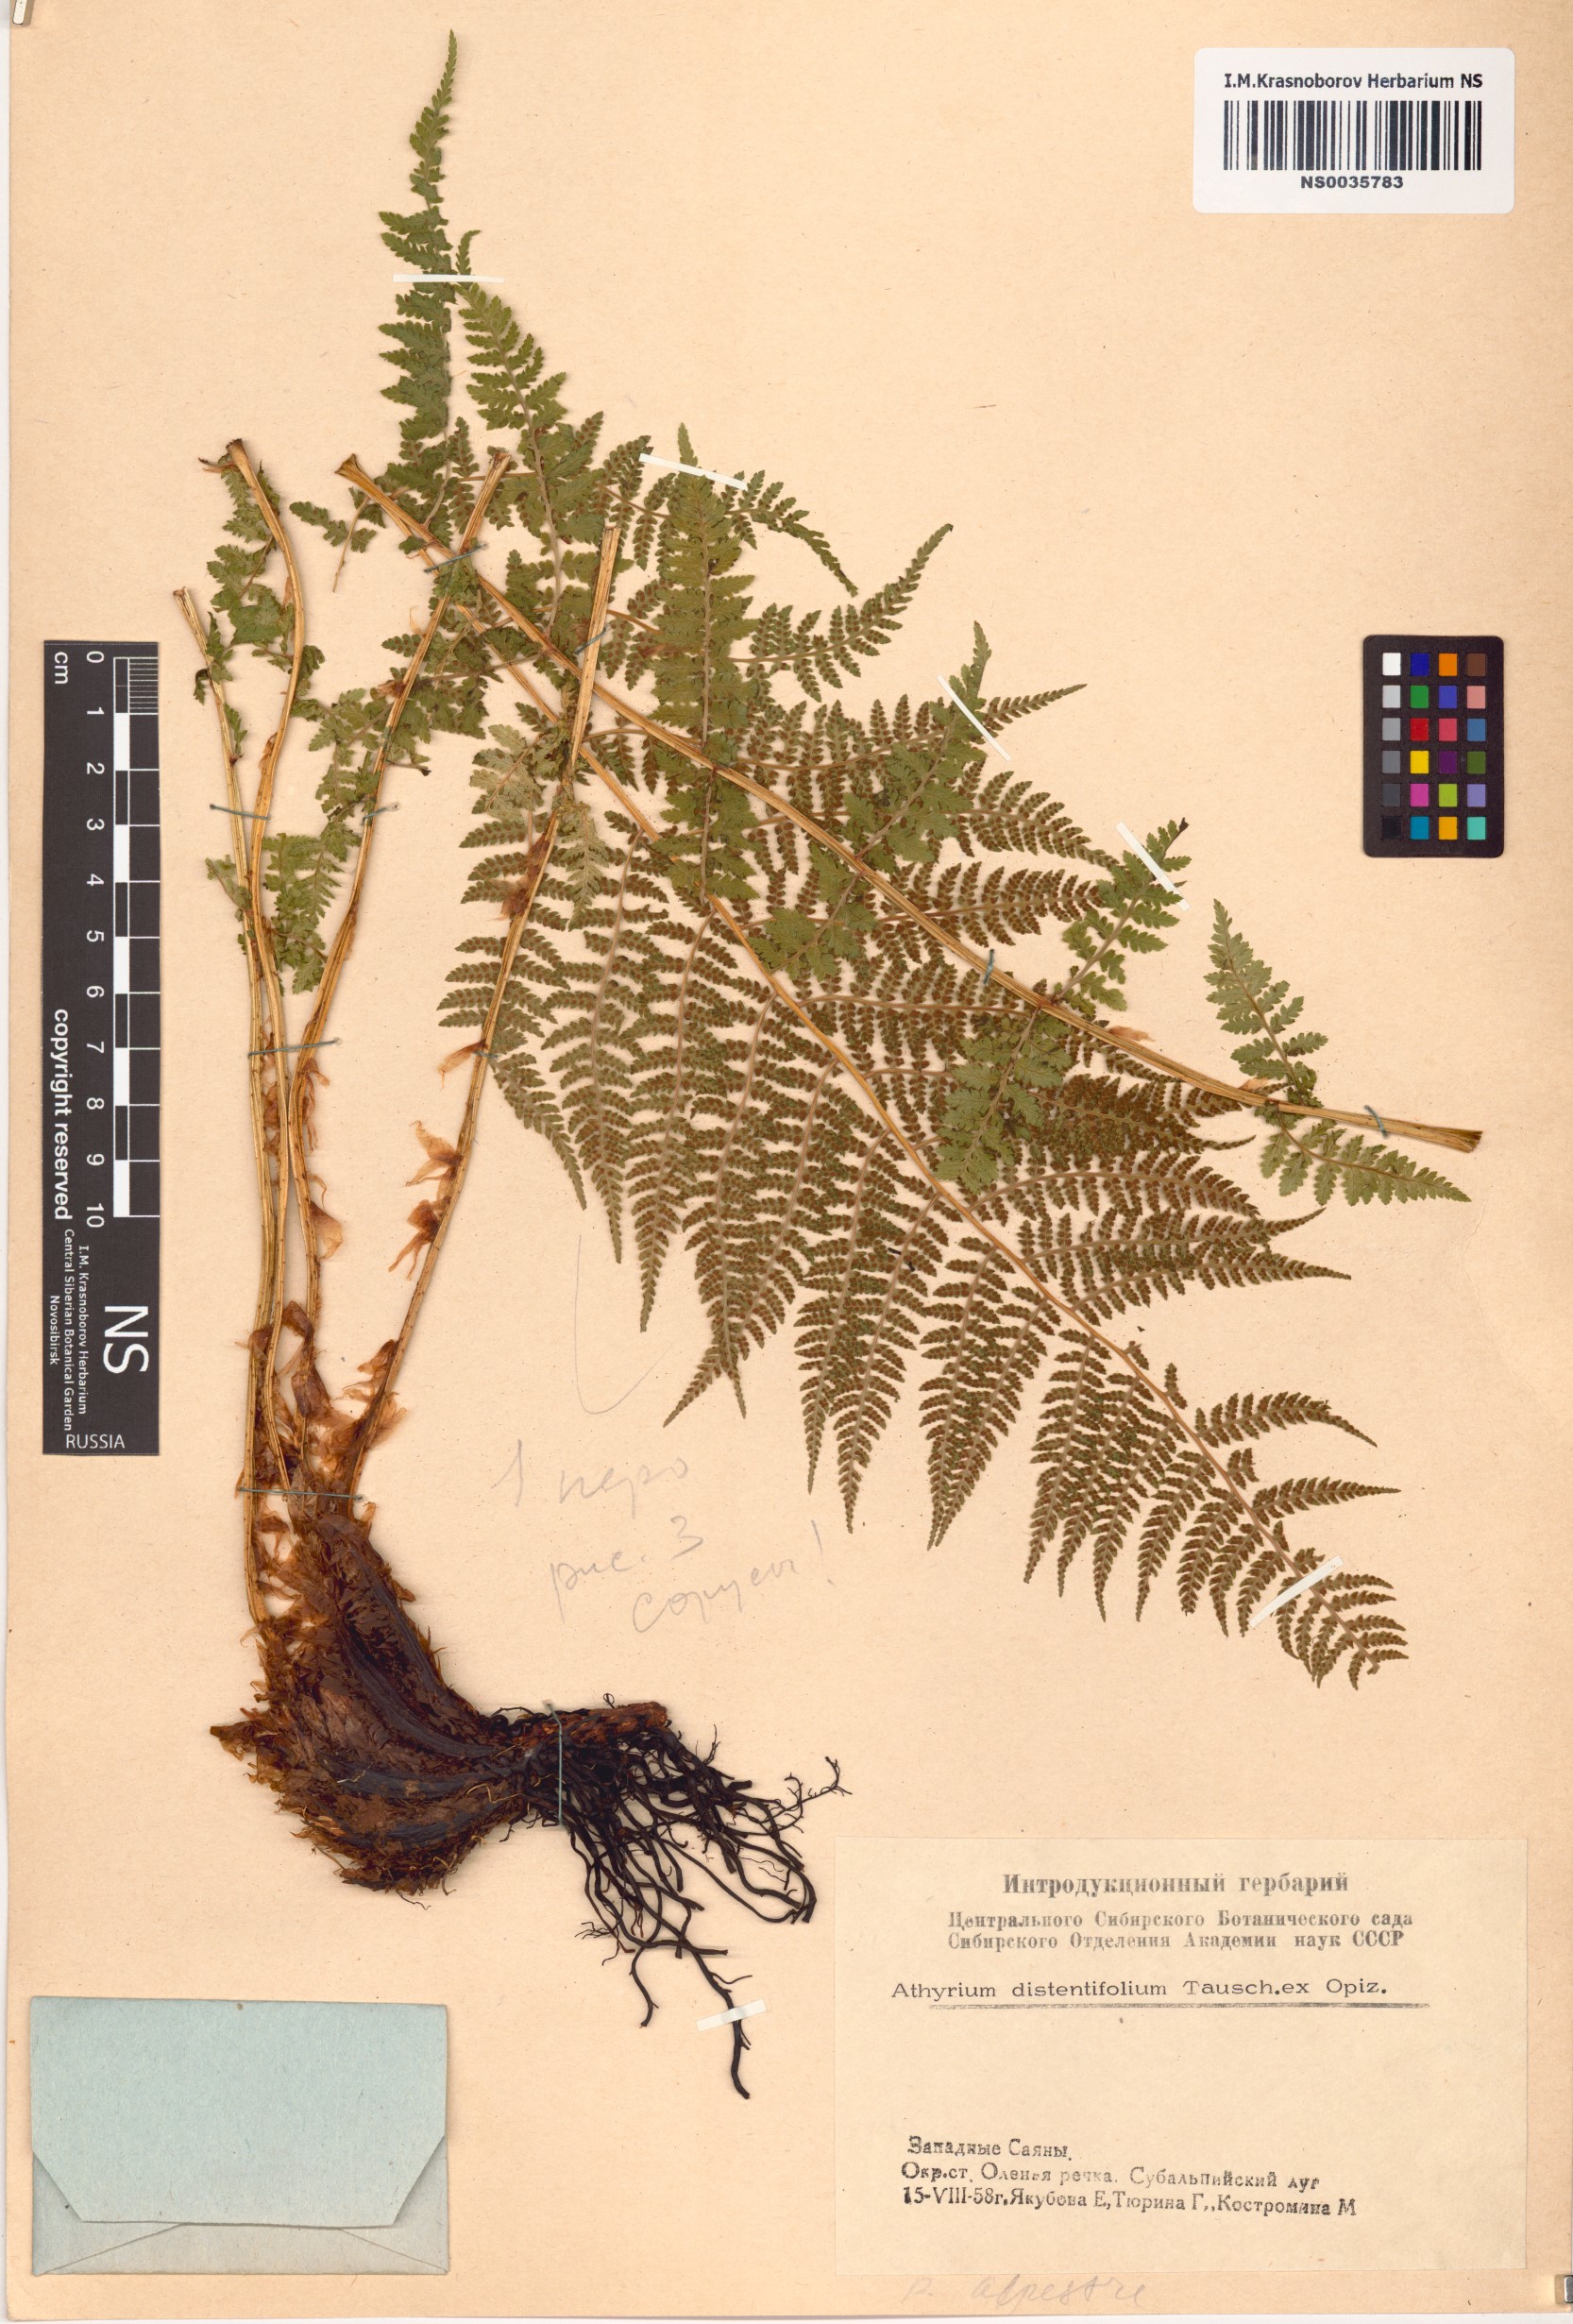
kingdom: Plantae
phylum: Tracheophyta
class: Polypodiopsida
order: Polypodiales
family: Athyriaceae
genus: Pseudathyrium
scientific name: Pseudathyrium alpestre
